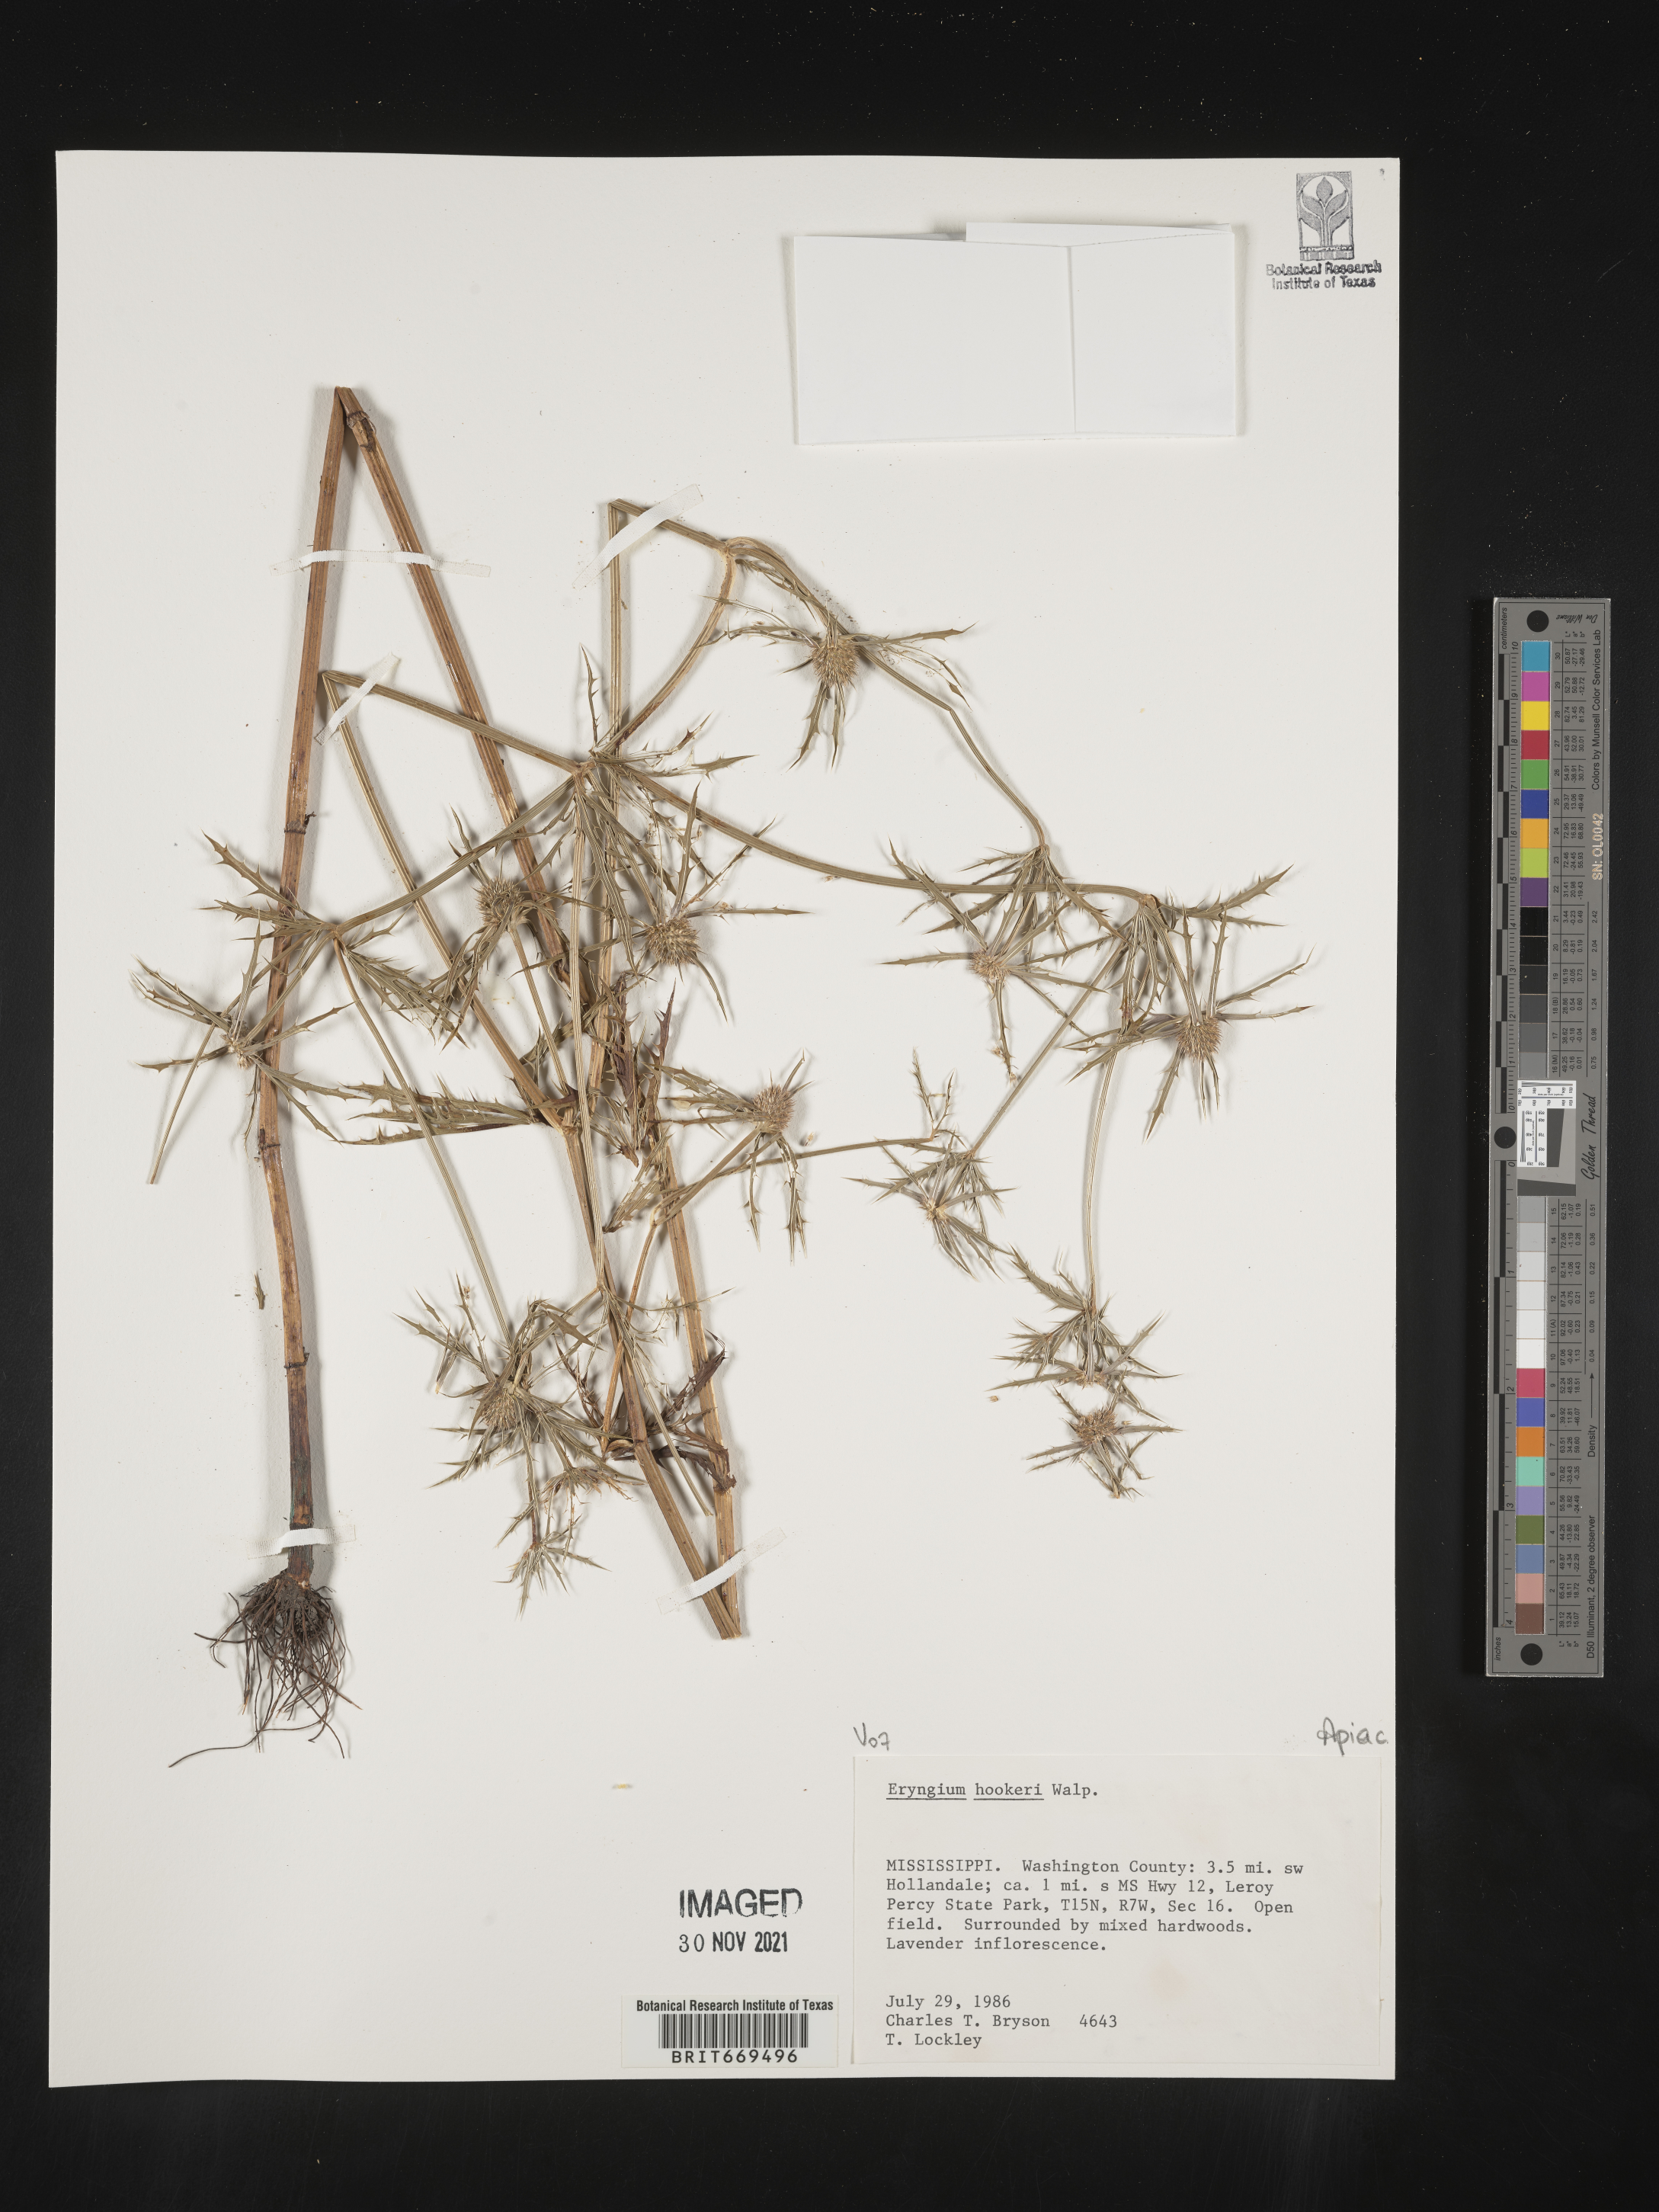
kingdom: Plantae
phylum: Tracheophyta
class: Magnoliopsida
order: Apiales
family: Apiaceae
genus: Eryngium
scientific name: Eryngium
